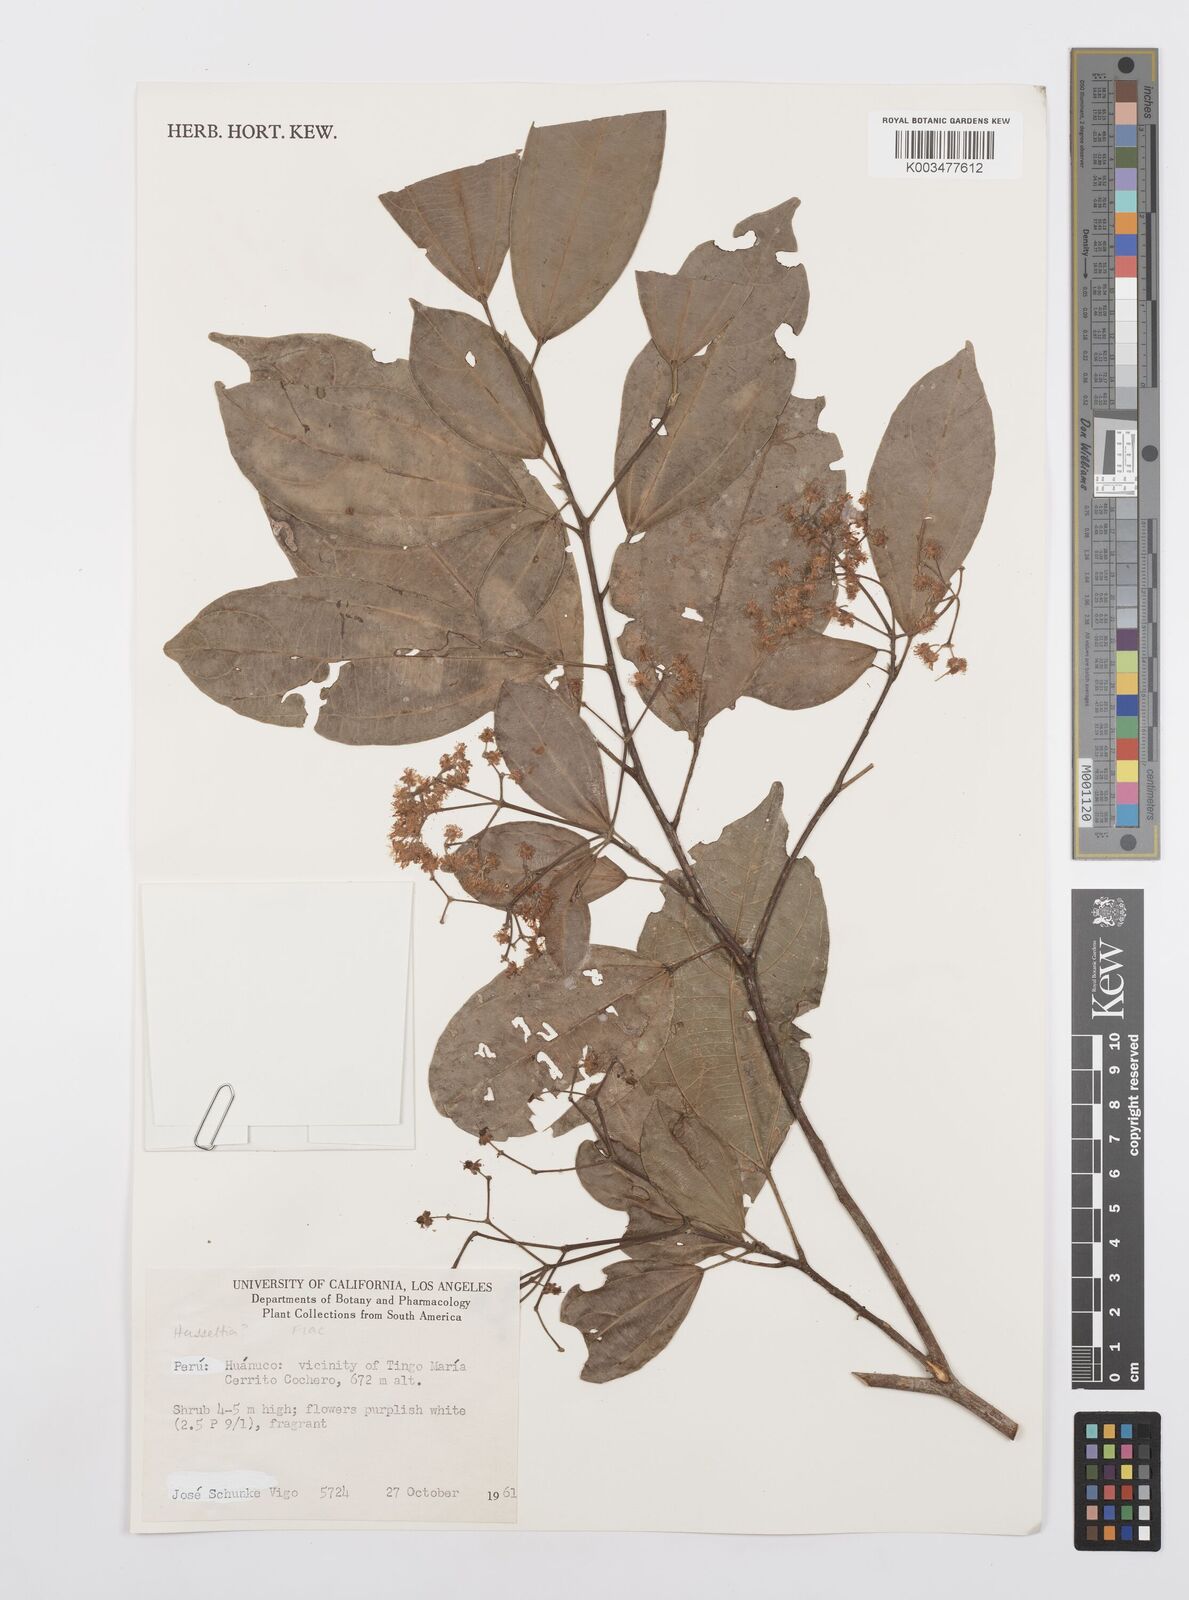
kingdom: Plantae
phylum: Tracheophyta
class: Magnoliopsida
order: Malpighiales
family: Salicaceae
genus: Hasseltia
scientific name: Hasseltia
